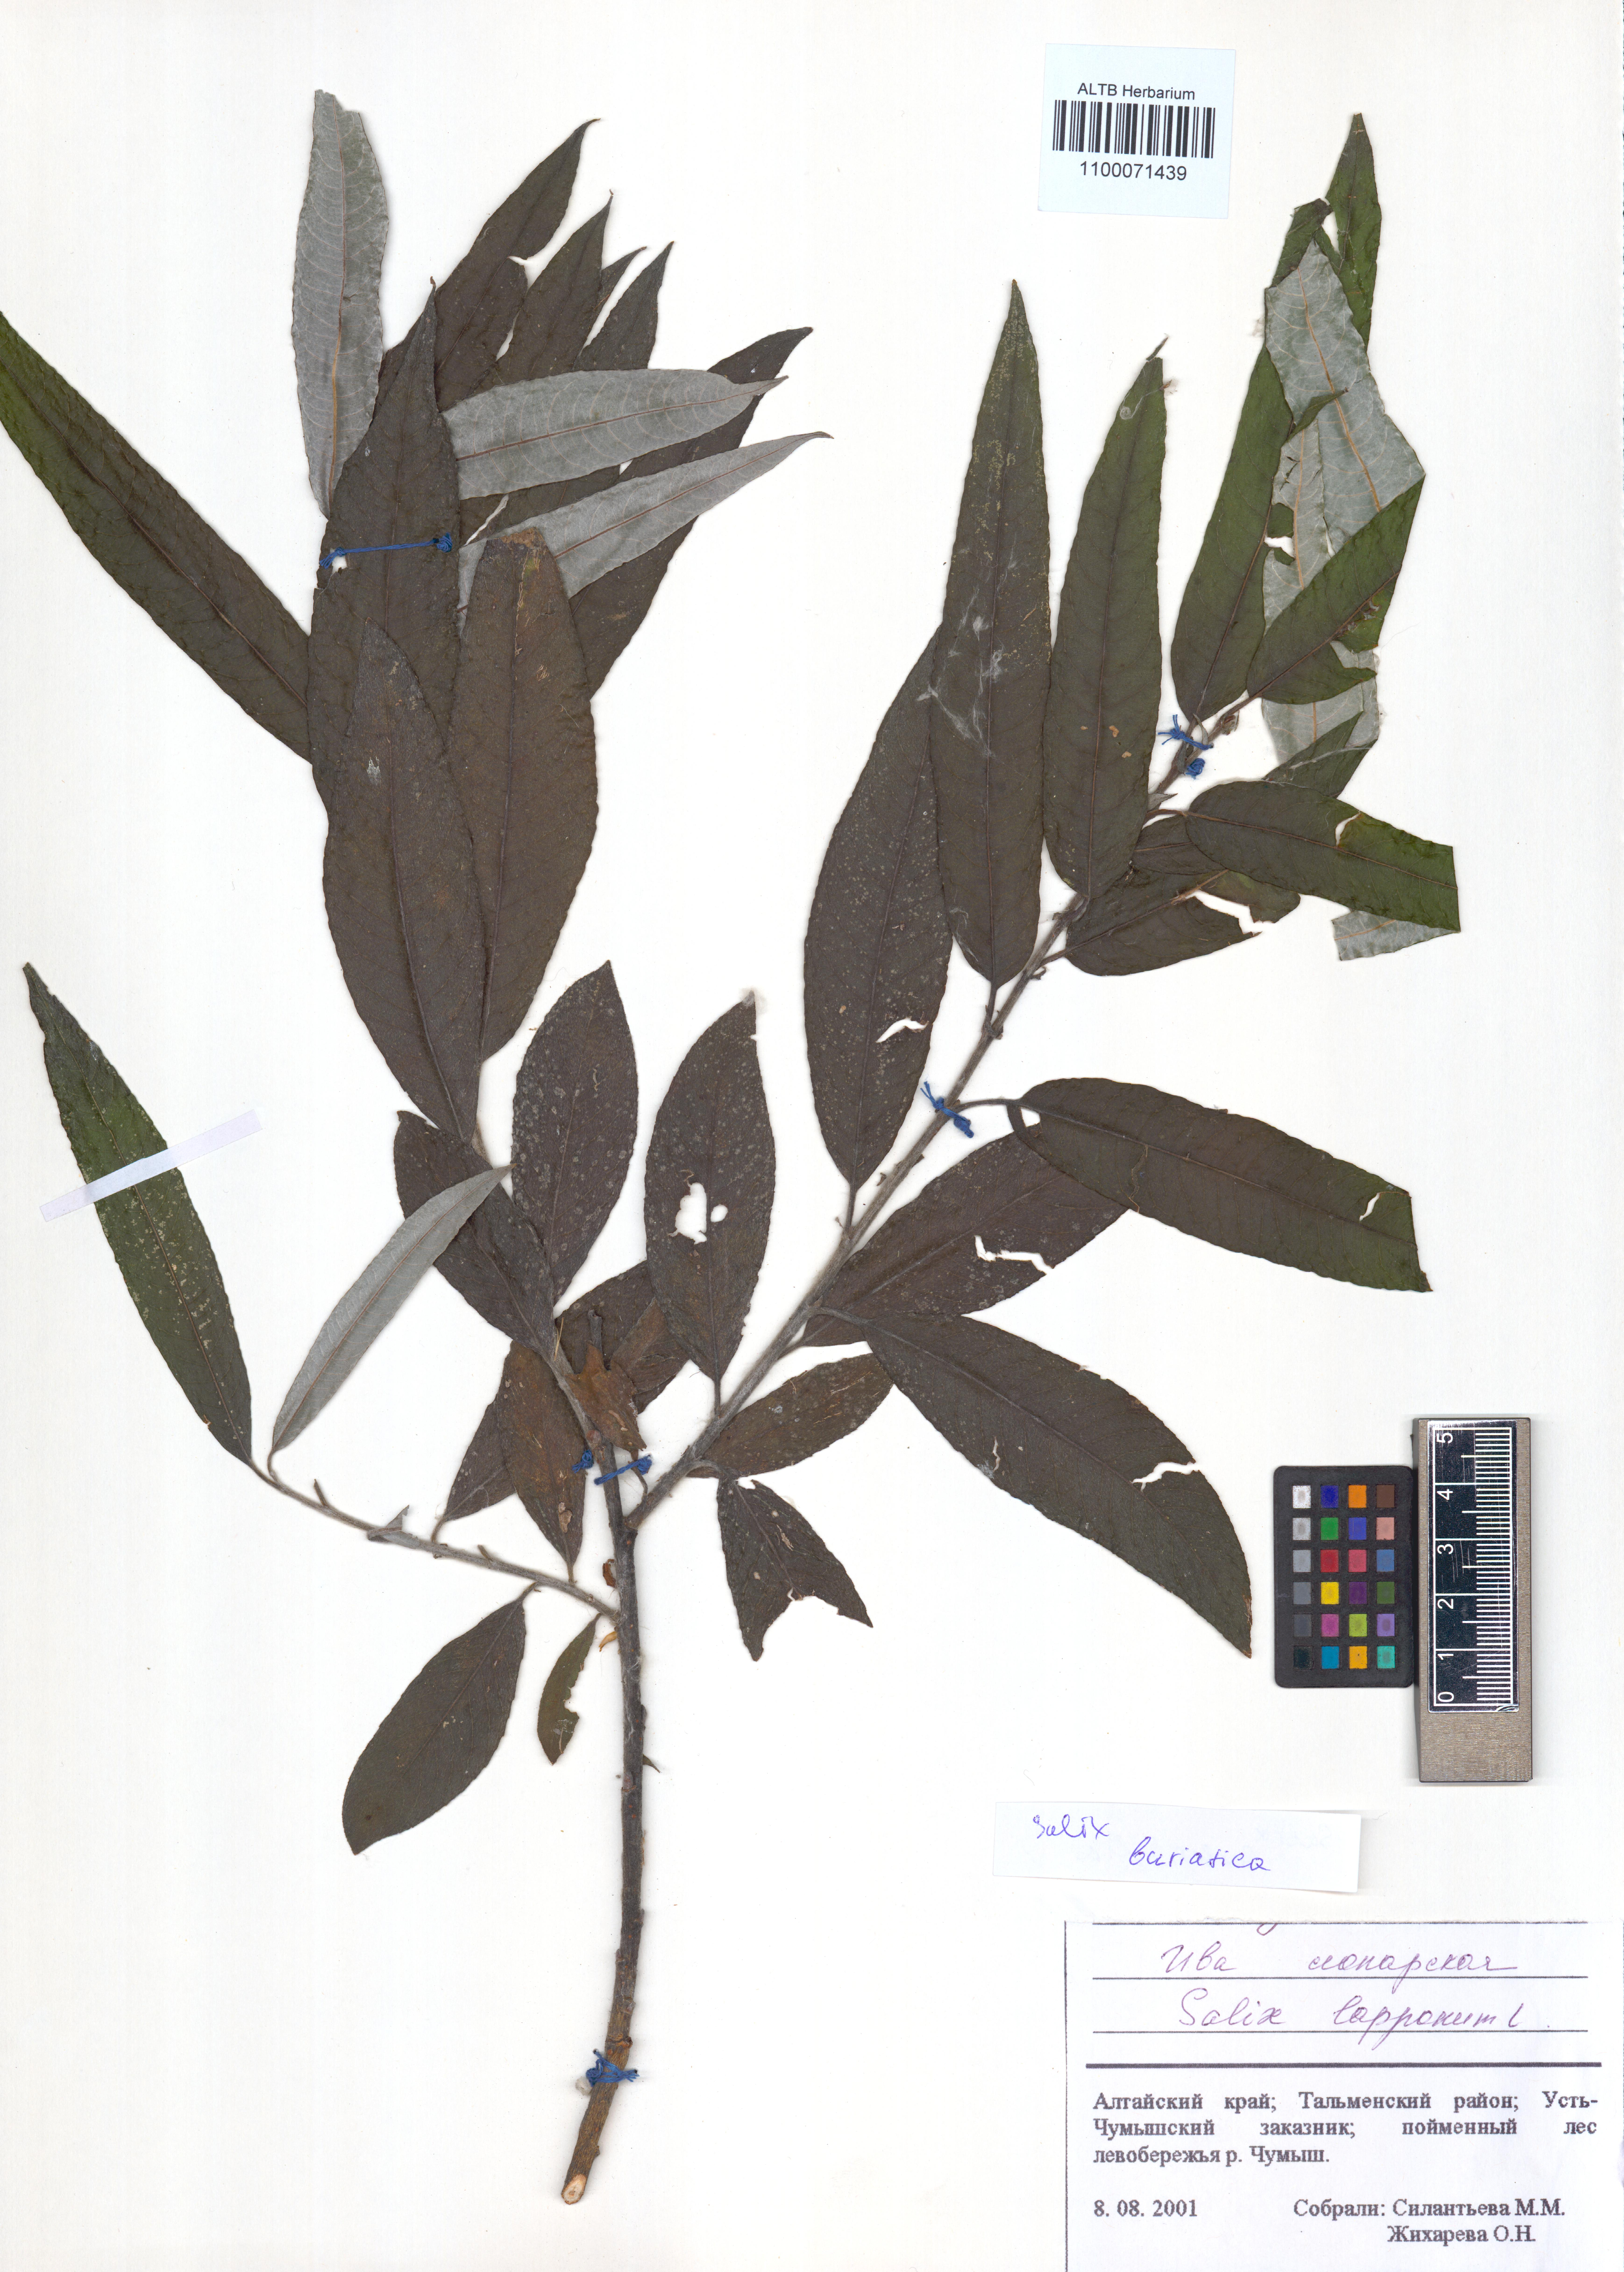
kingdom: Plantae
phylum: Tracheophyta
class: Magnoliopsida
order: Malpighiales
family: Salicaceae
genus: Salix
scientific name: Salix gmelinii
